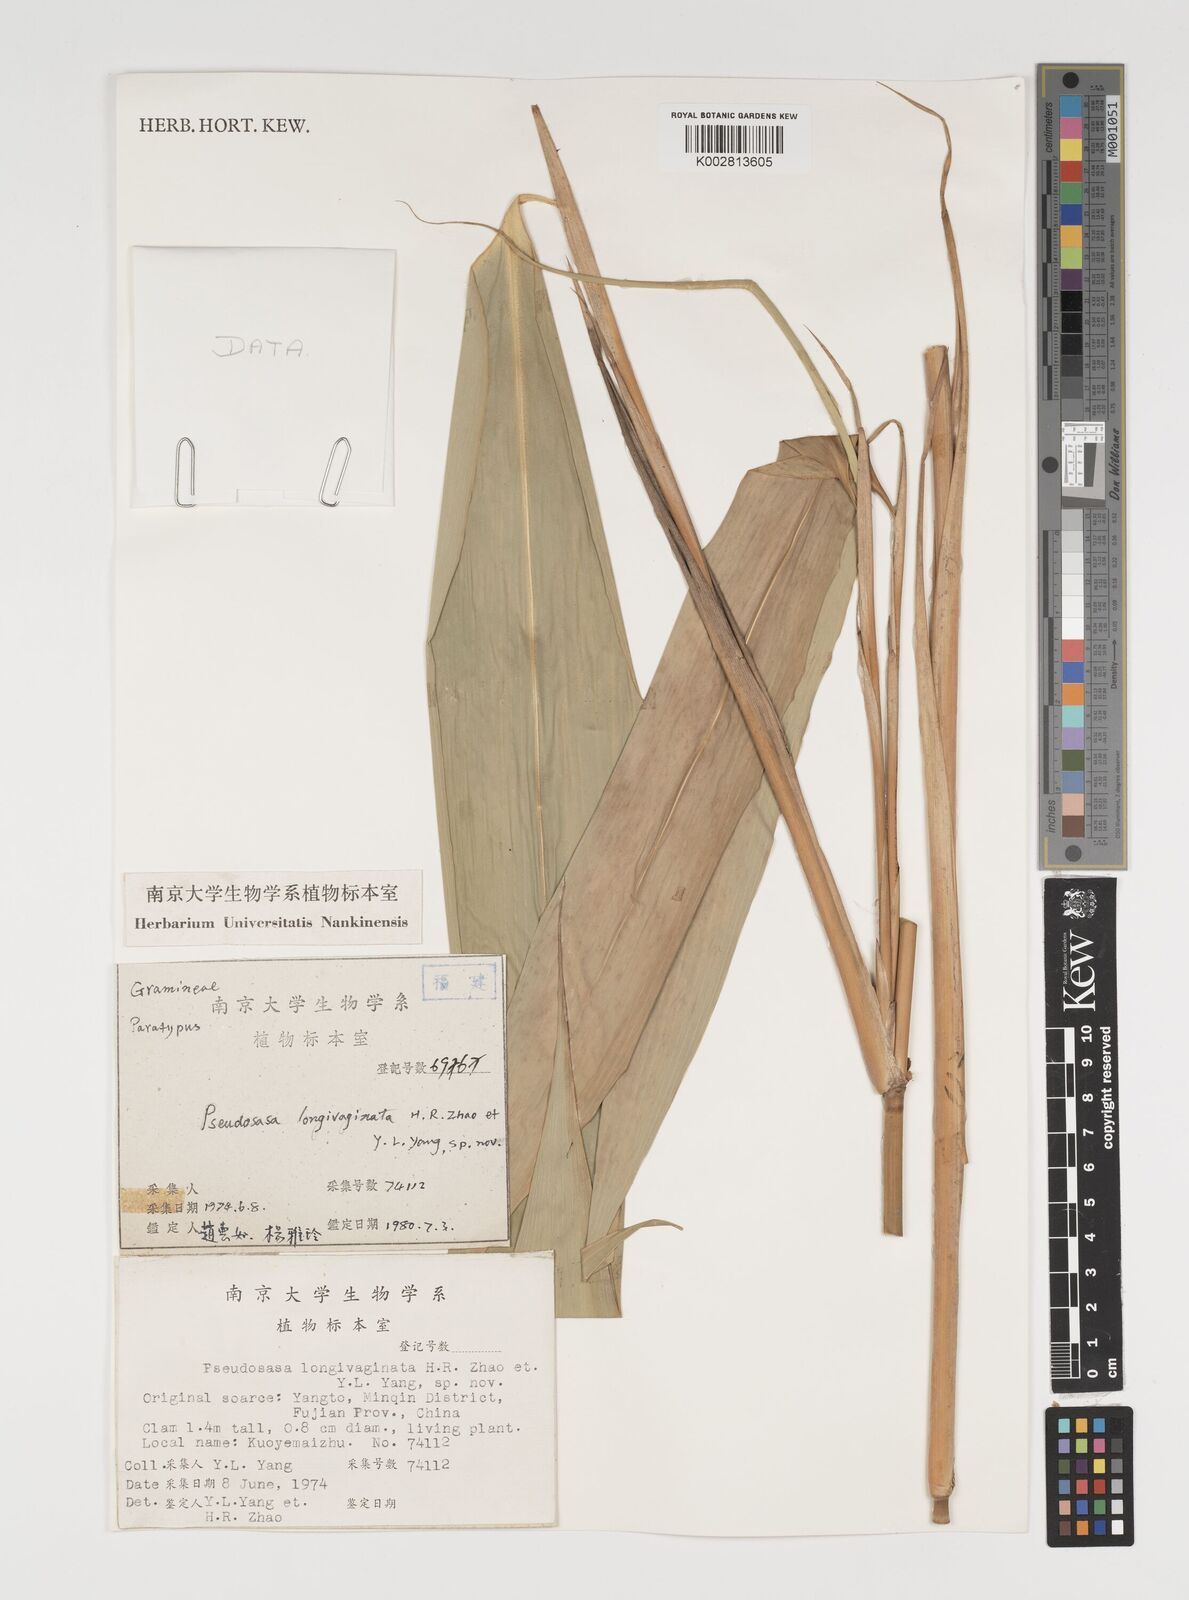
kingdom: Plantae
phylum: Tracheophyta
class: Liliopsida
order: Poales
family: Poaceae
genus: Indocalamus
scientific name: Indocalamus tessellatus
